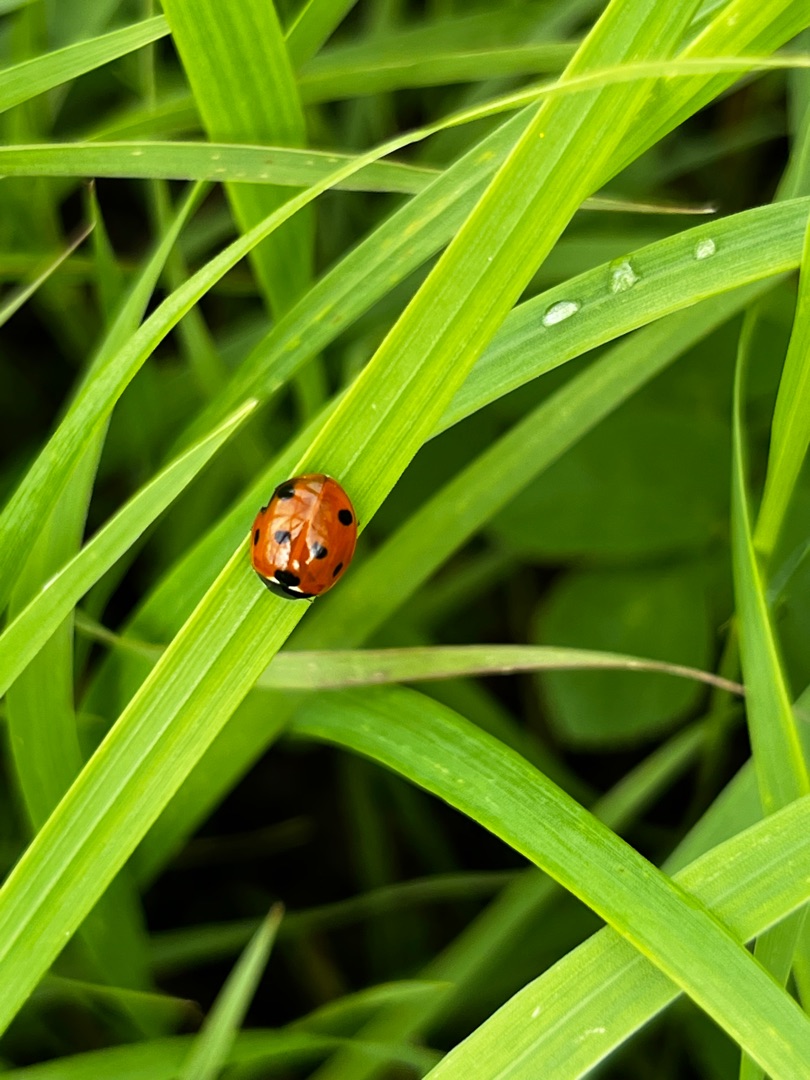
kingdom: Animalia
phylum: Arthropoda
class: Insecta
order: Coleoptera
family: Coccinellidae
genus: Coccinella
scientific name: Coccinella septempunctata
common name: Syvplettet mariehøne
